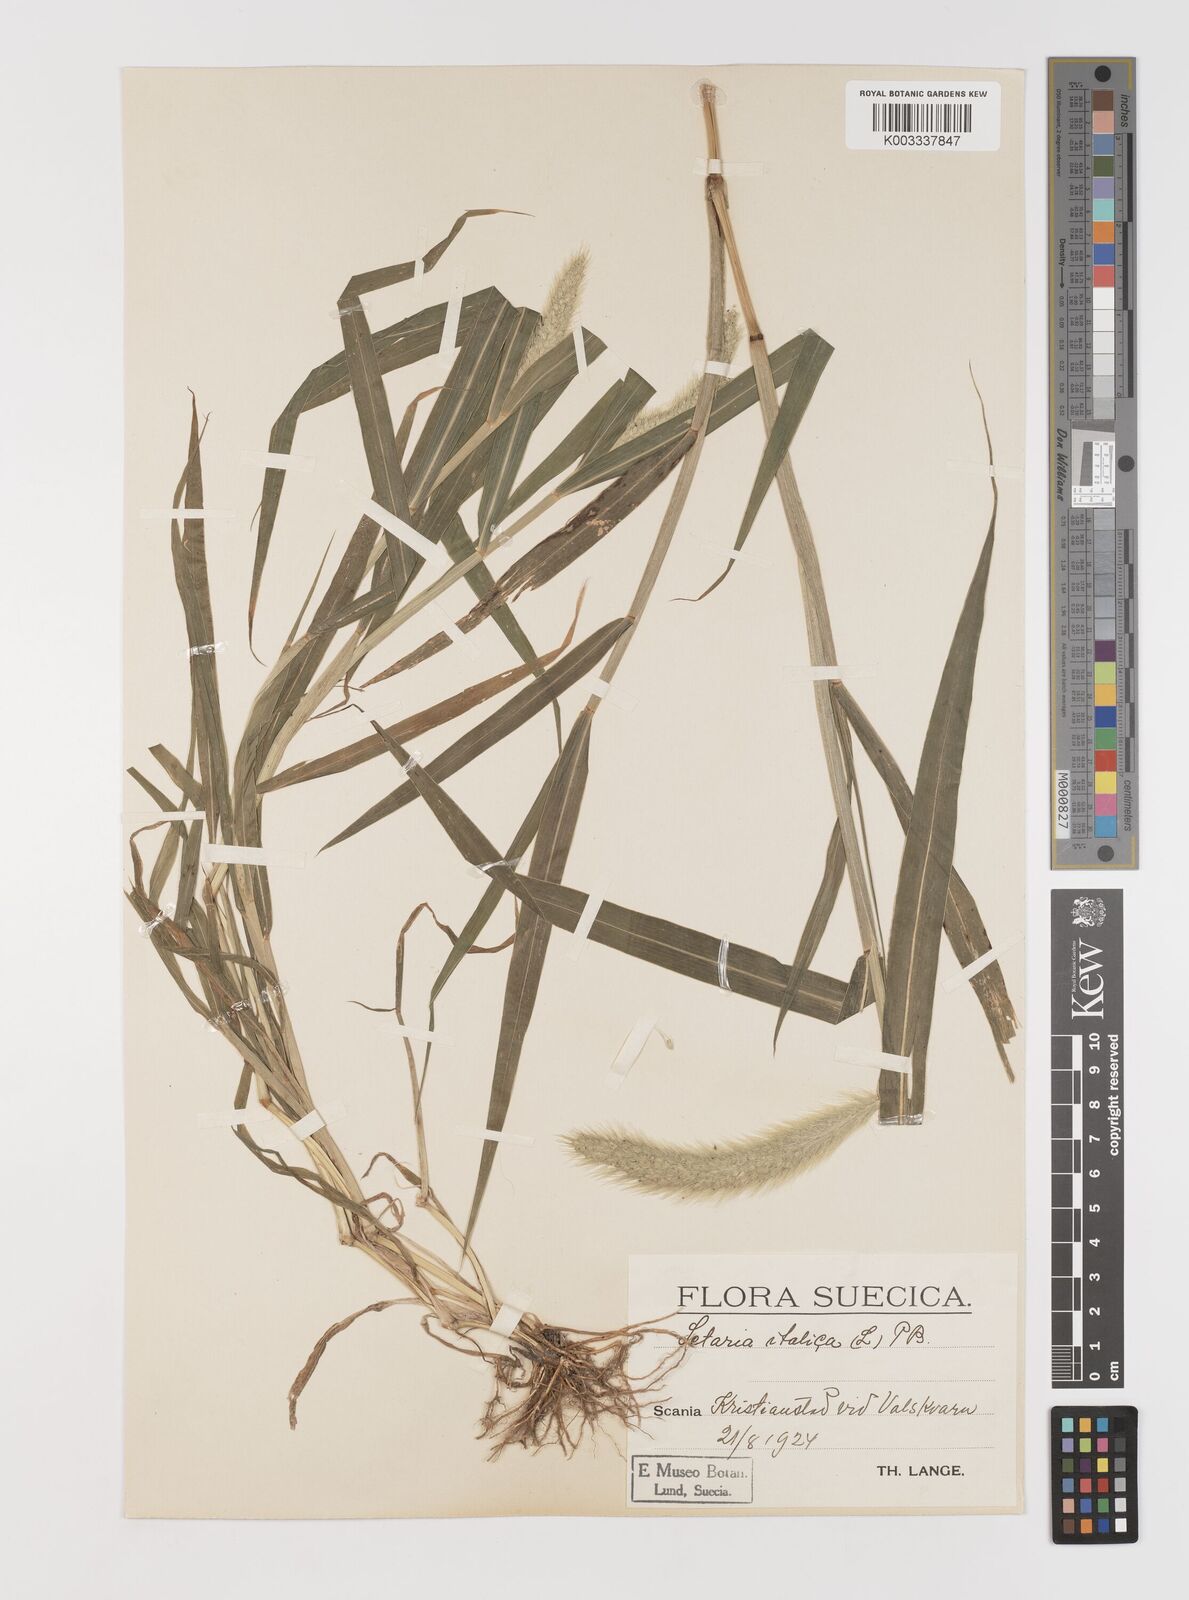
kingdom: Plantae
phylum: Tracheophyta
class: Liliopsida
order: Poales
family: Poaceae
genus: Setaria
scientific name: Setaria viridis
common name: Green bristlegrass
